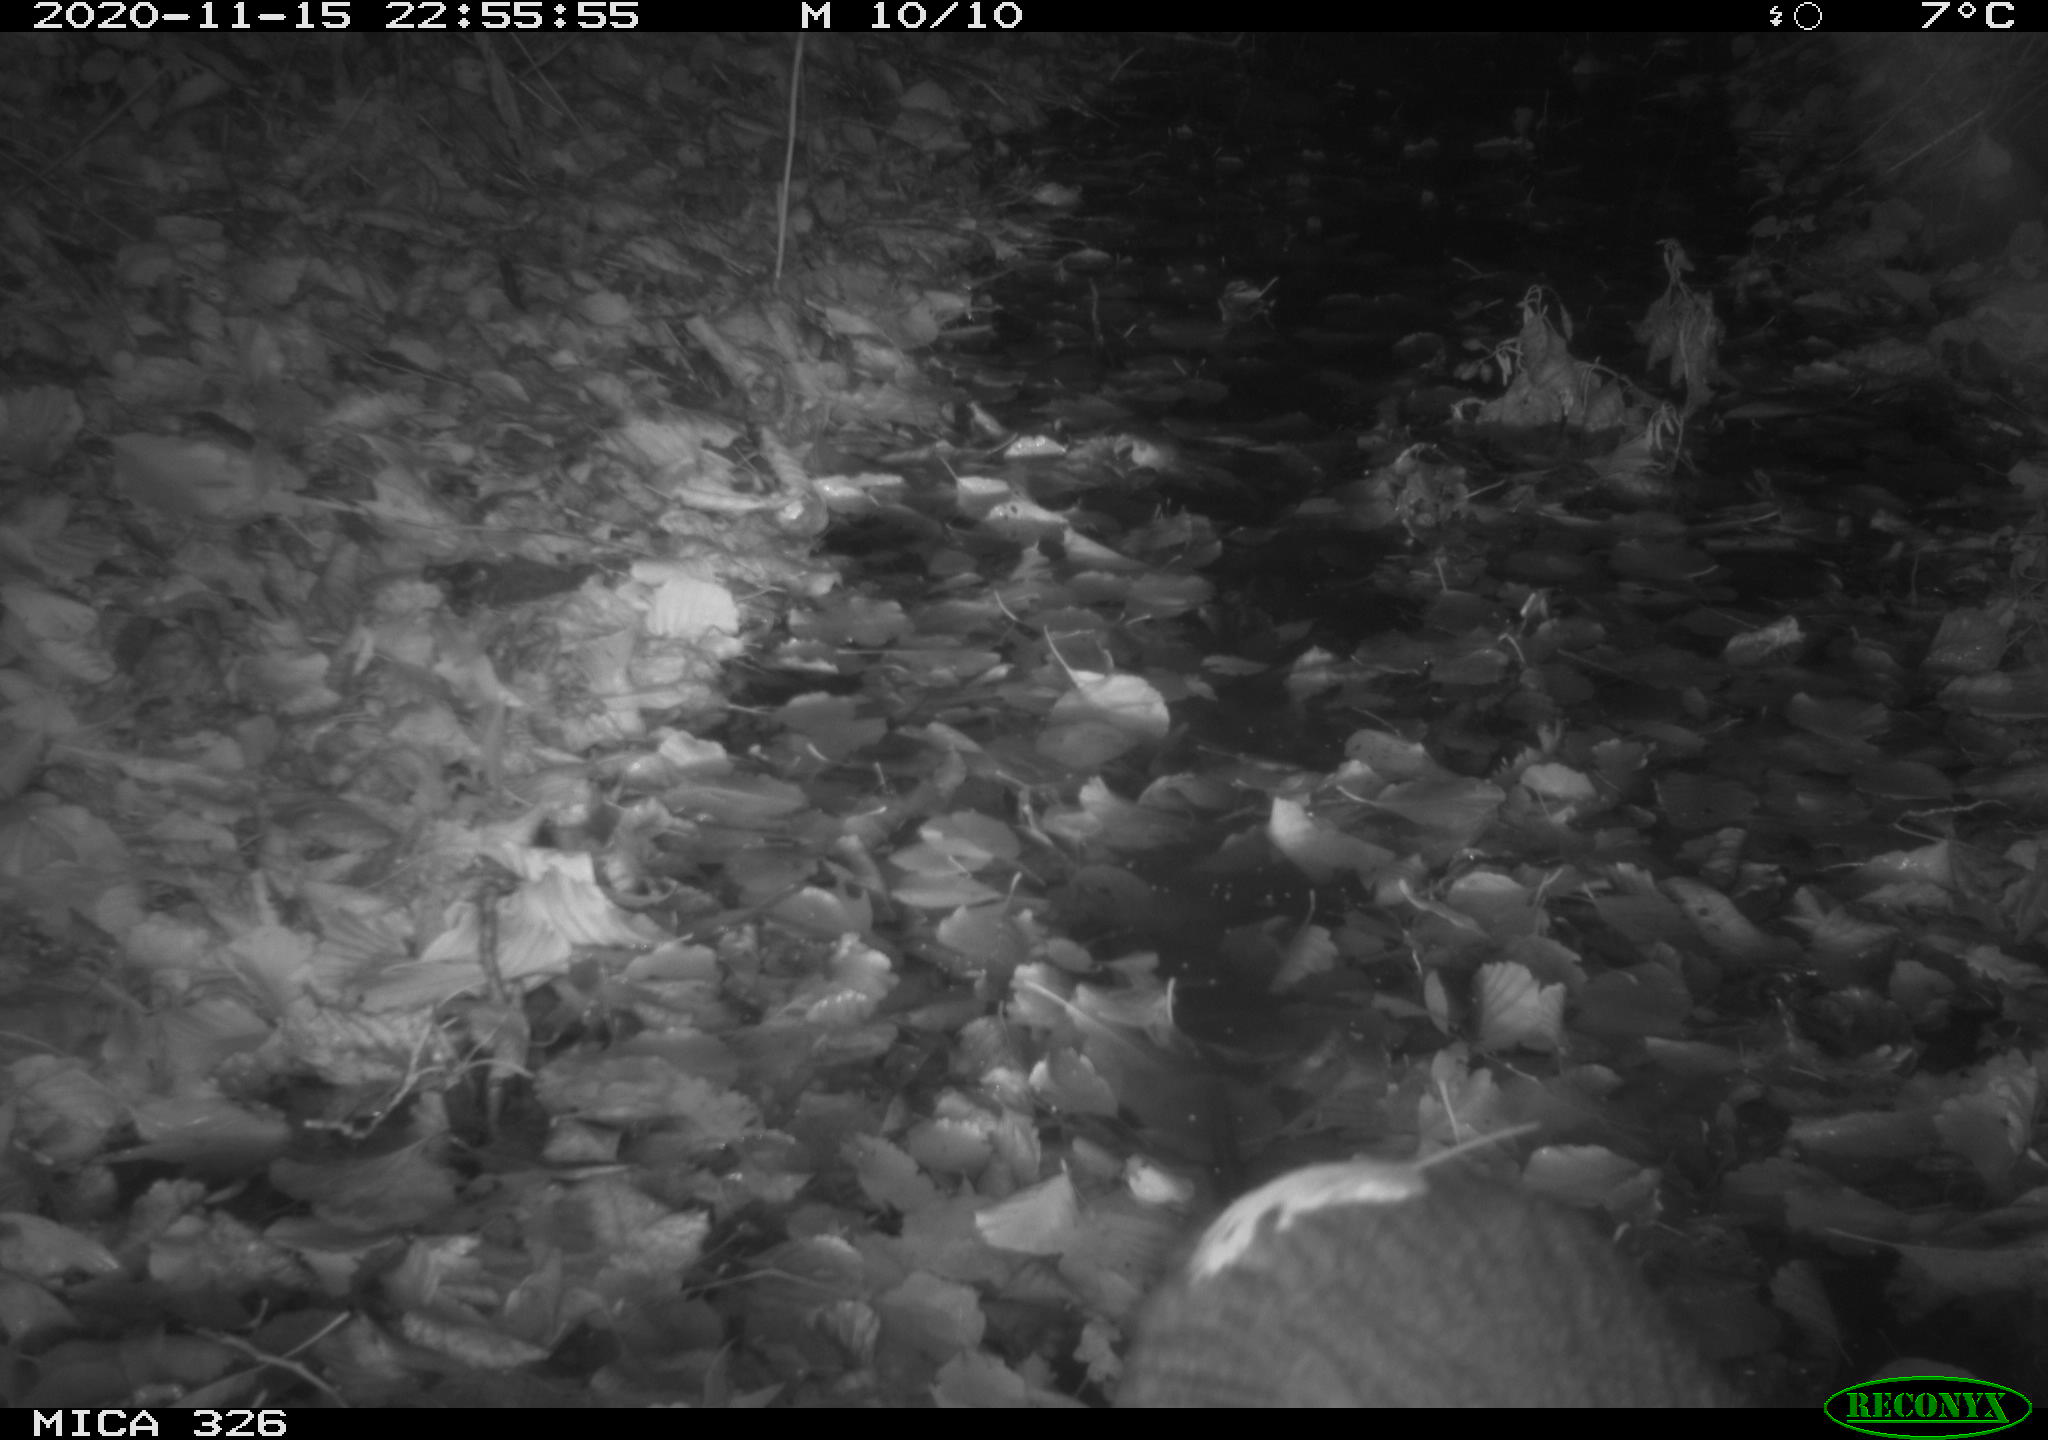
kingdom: Animalia
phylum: Chordata
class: Mammalia
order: Rodentia
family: Myocastoridae
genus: Myocastor
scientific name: Myocastor coypus
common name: Coypu
